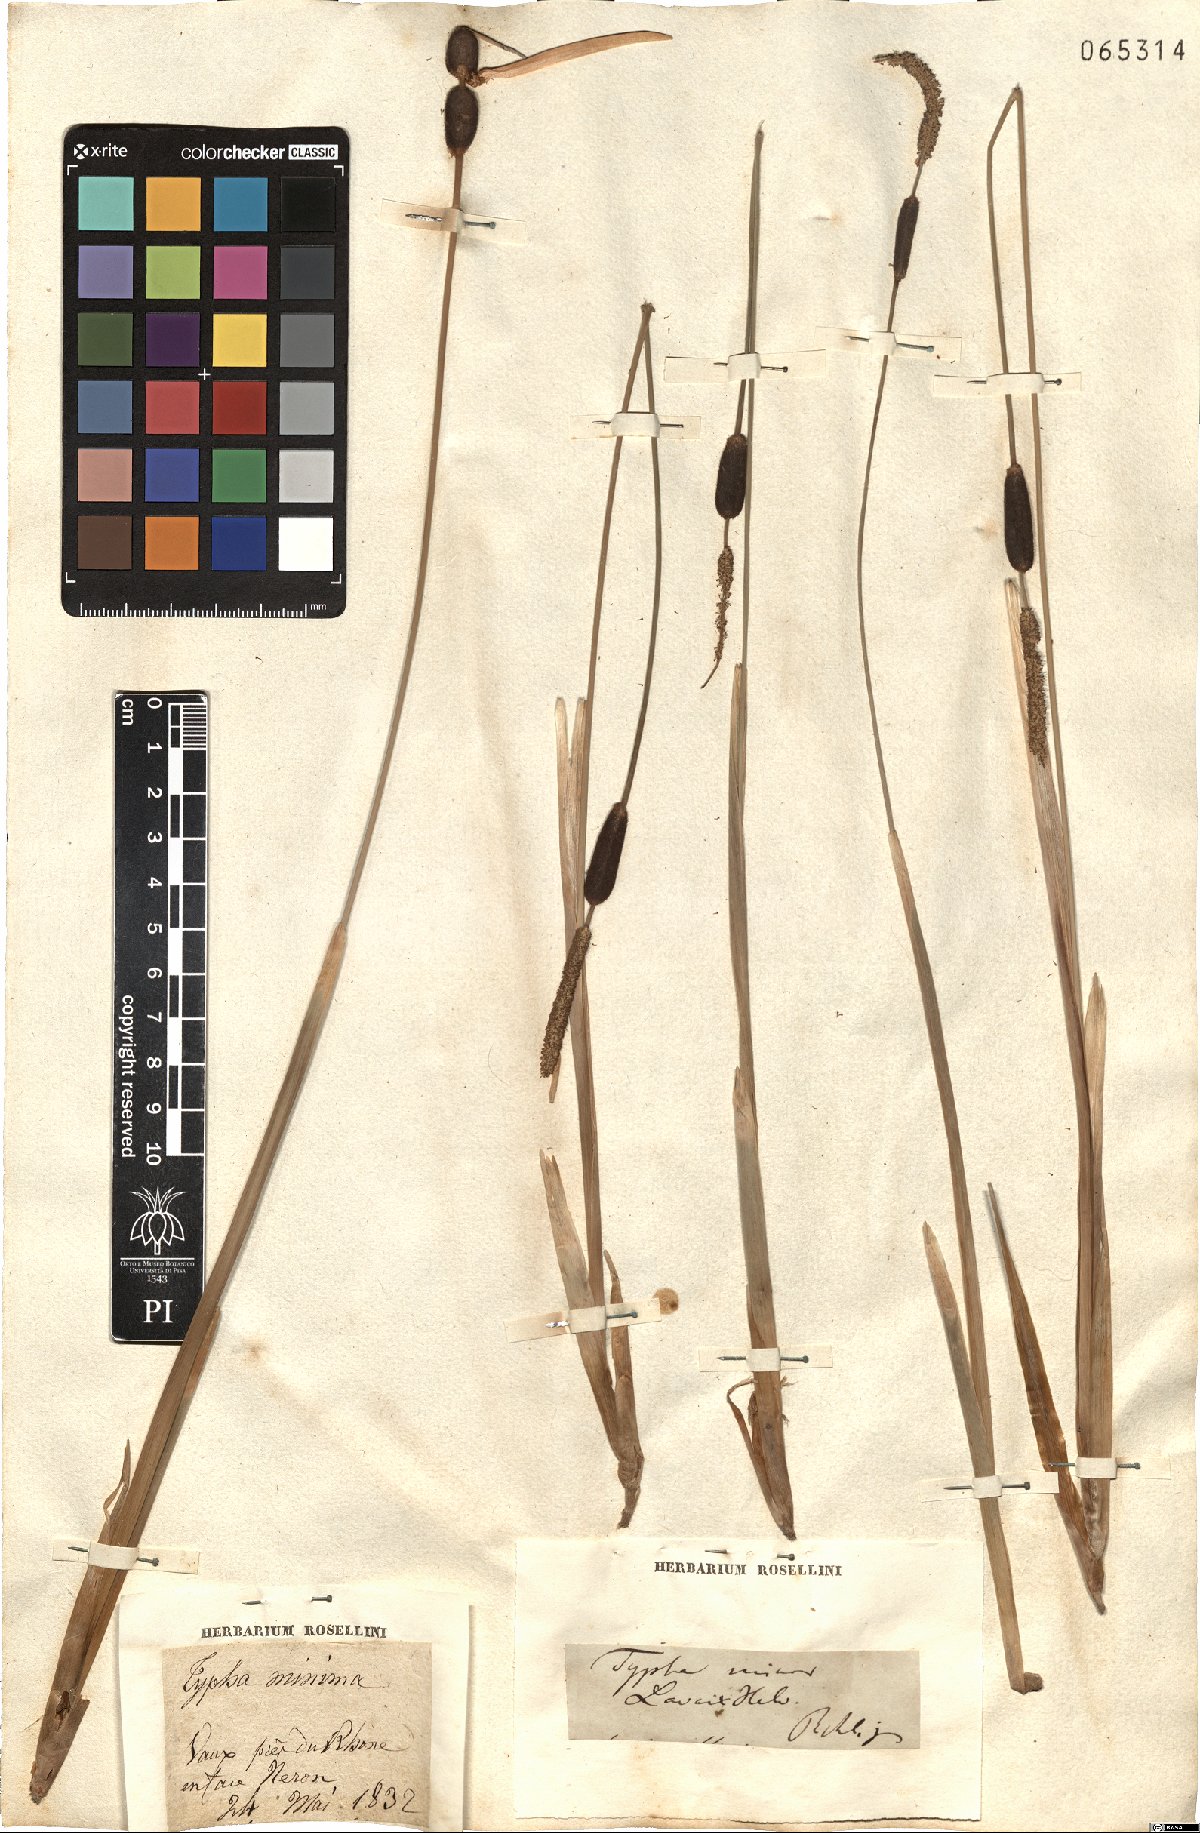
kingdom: Plantae
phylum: Tracheophyta
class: Liliopsida
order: Poales
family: Typhaceae
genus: Typha
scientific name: Typha minima
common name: Dwarf bulrush
